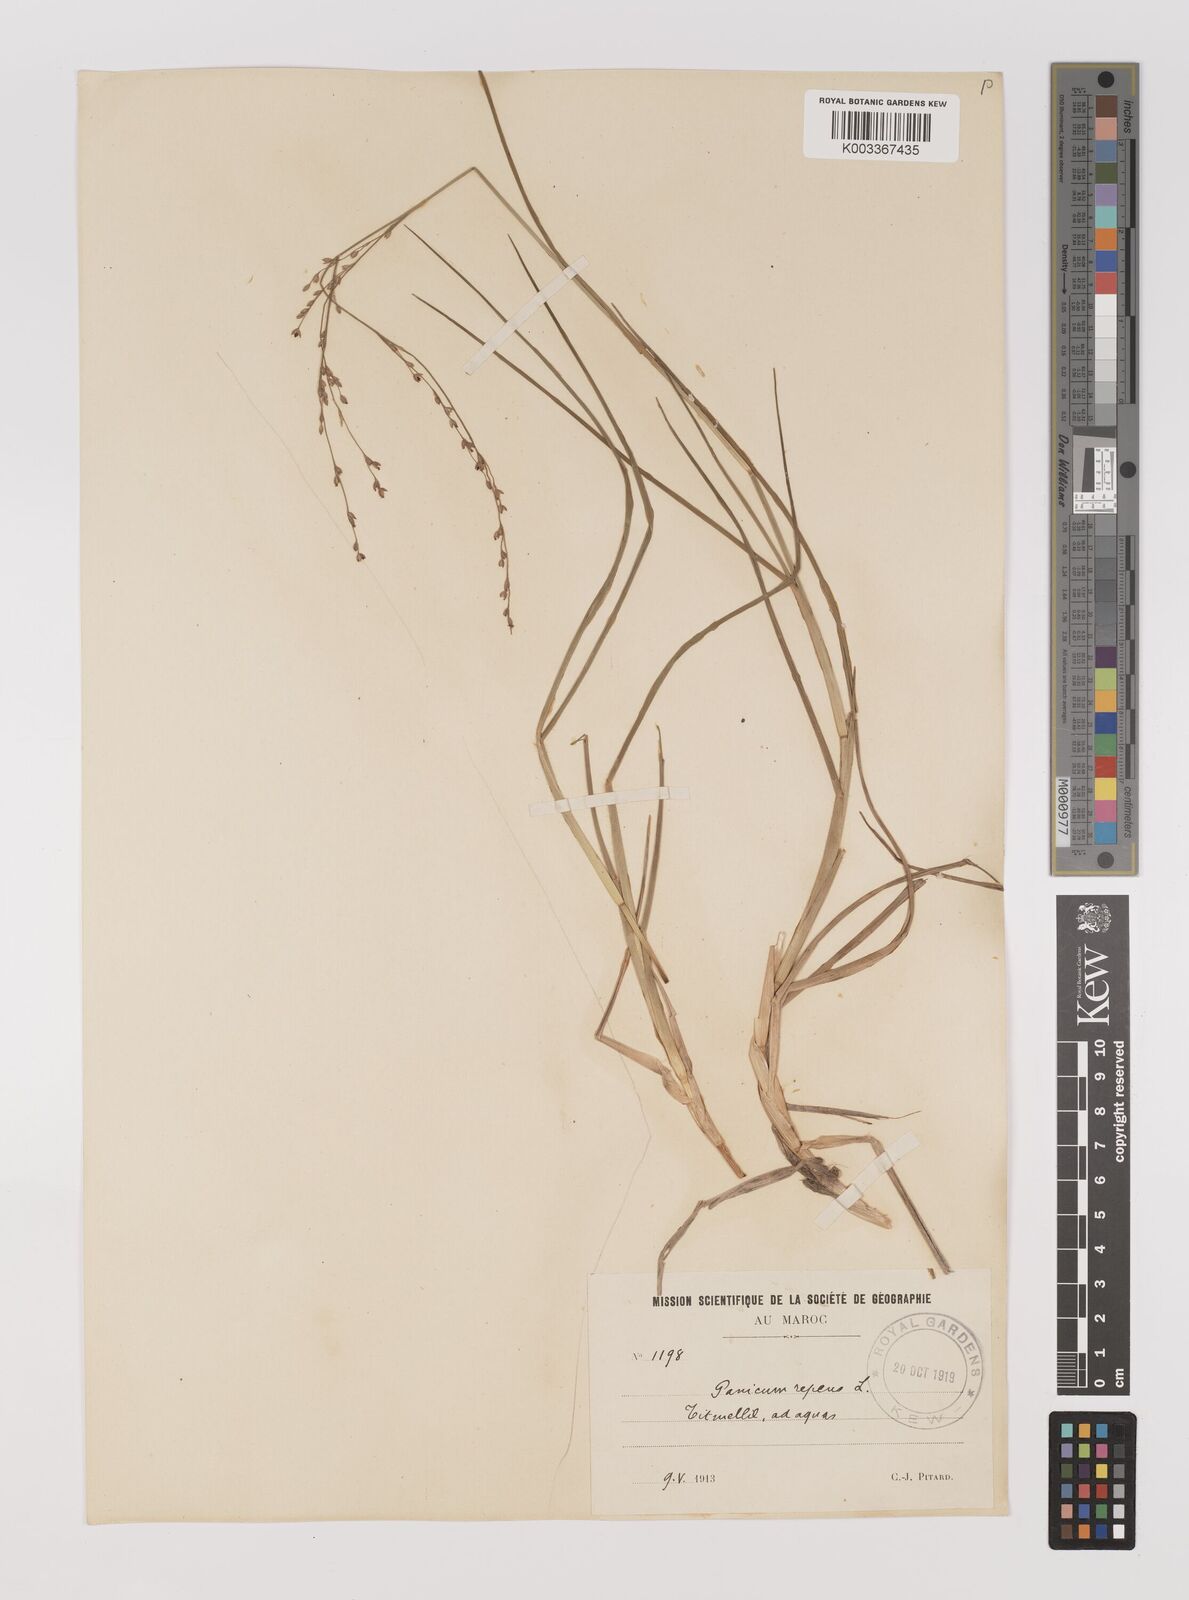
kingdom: Plantae
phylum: Tracheophyta
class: Liliopsida
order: Poales
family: Poaceae
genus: Panicum
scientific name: Panicum repens
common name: Torpedo grass
